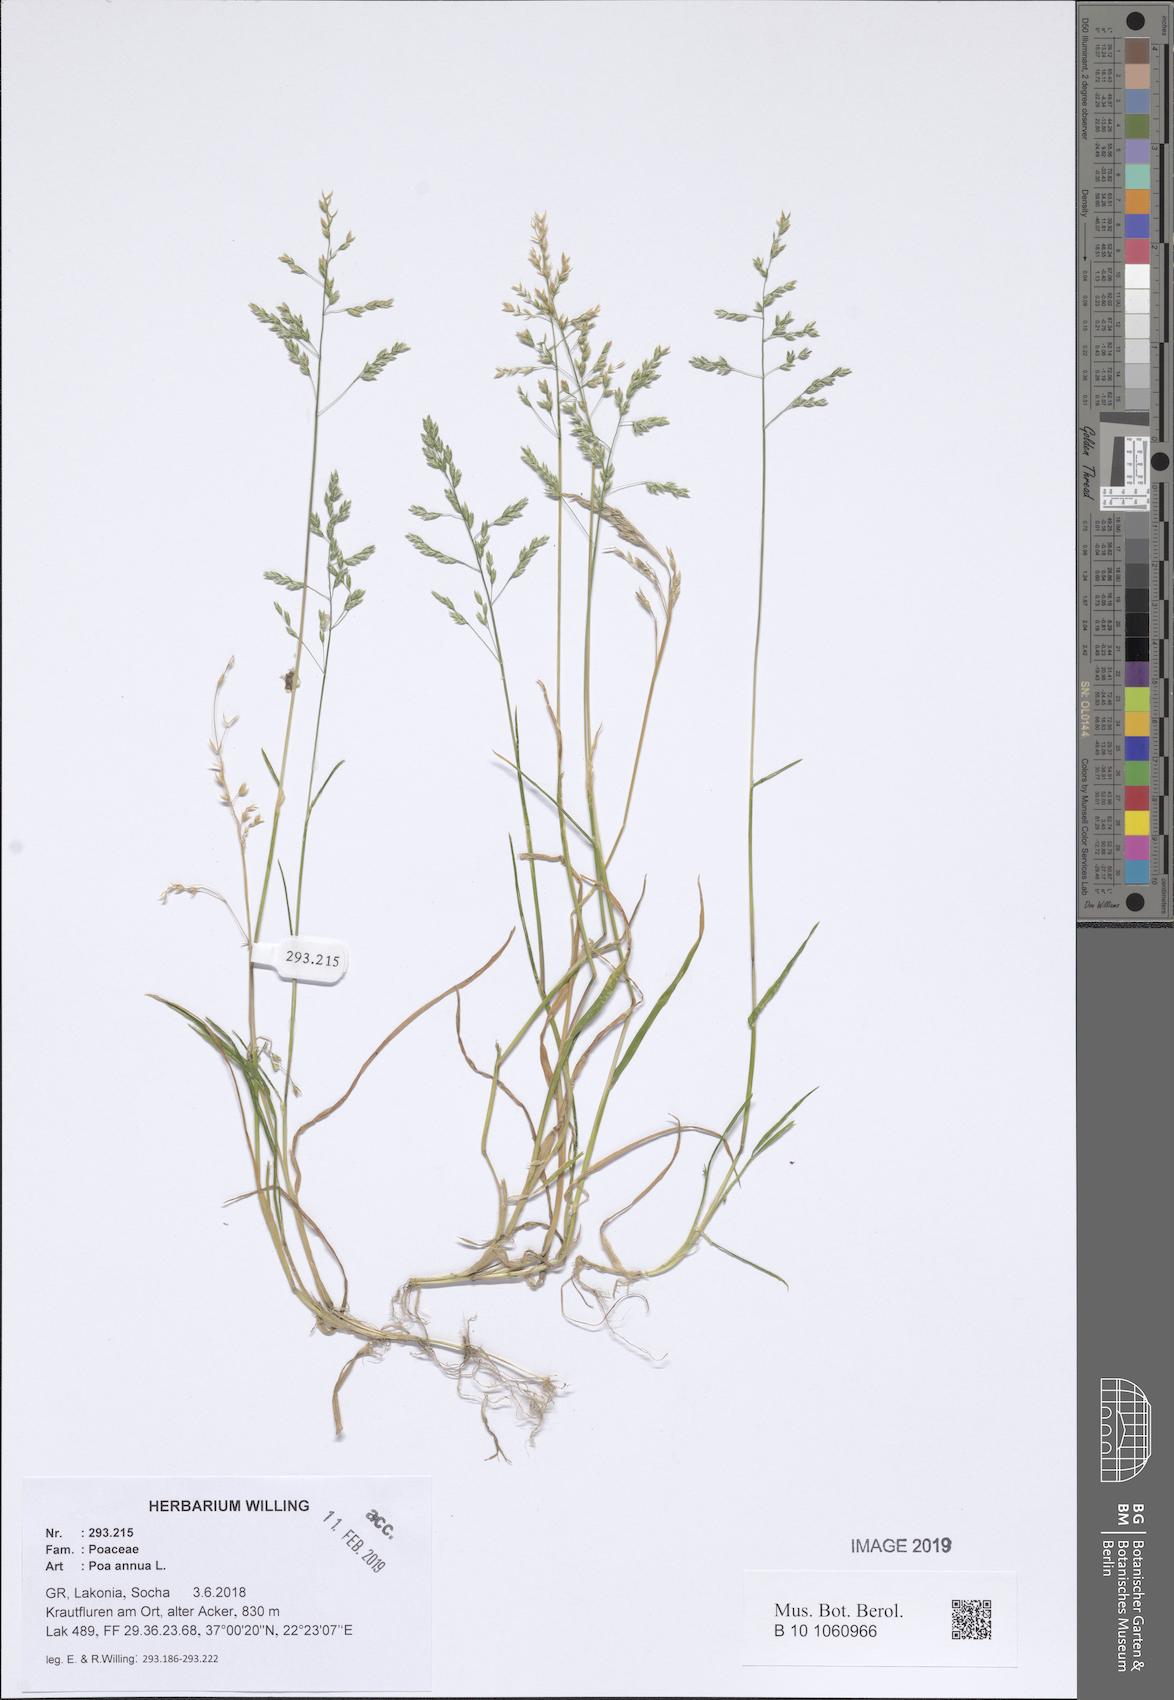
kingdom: Plantae
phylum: Tracheophyta
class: Liliopsida
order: Poales
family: Poaceae
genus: Poa
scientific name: Poa annua
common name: Annual bluegrass
